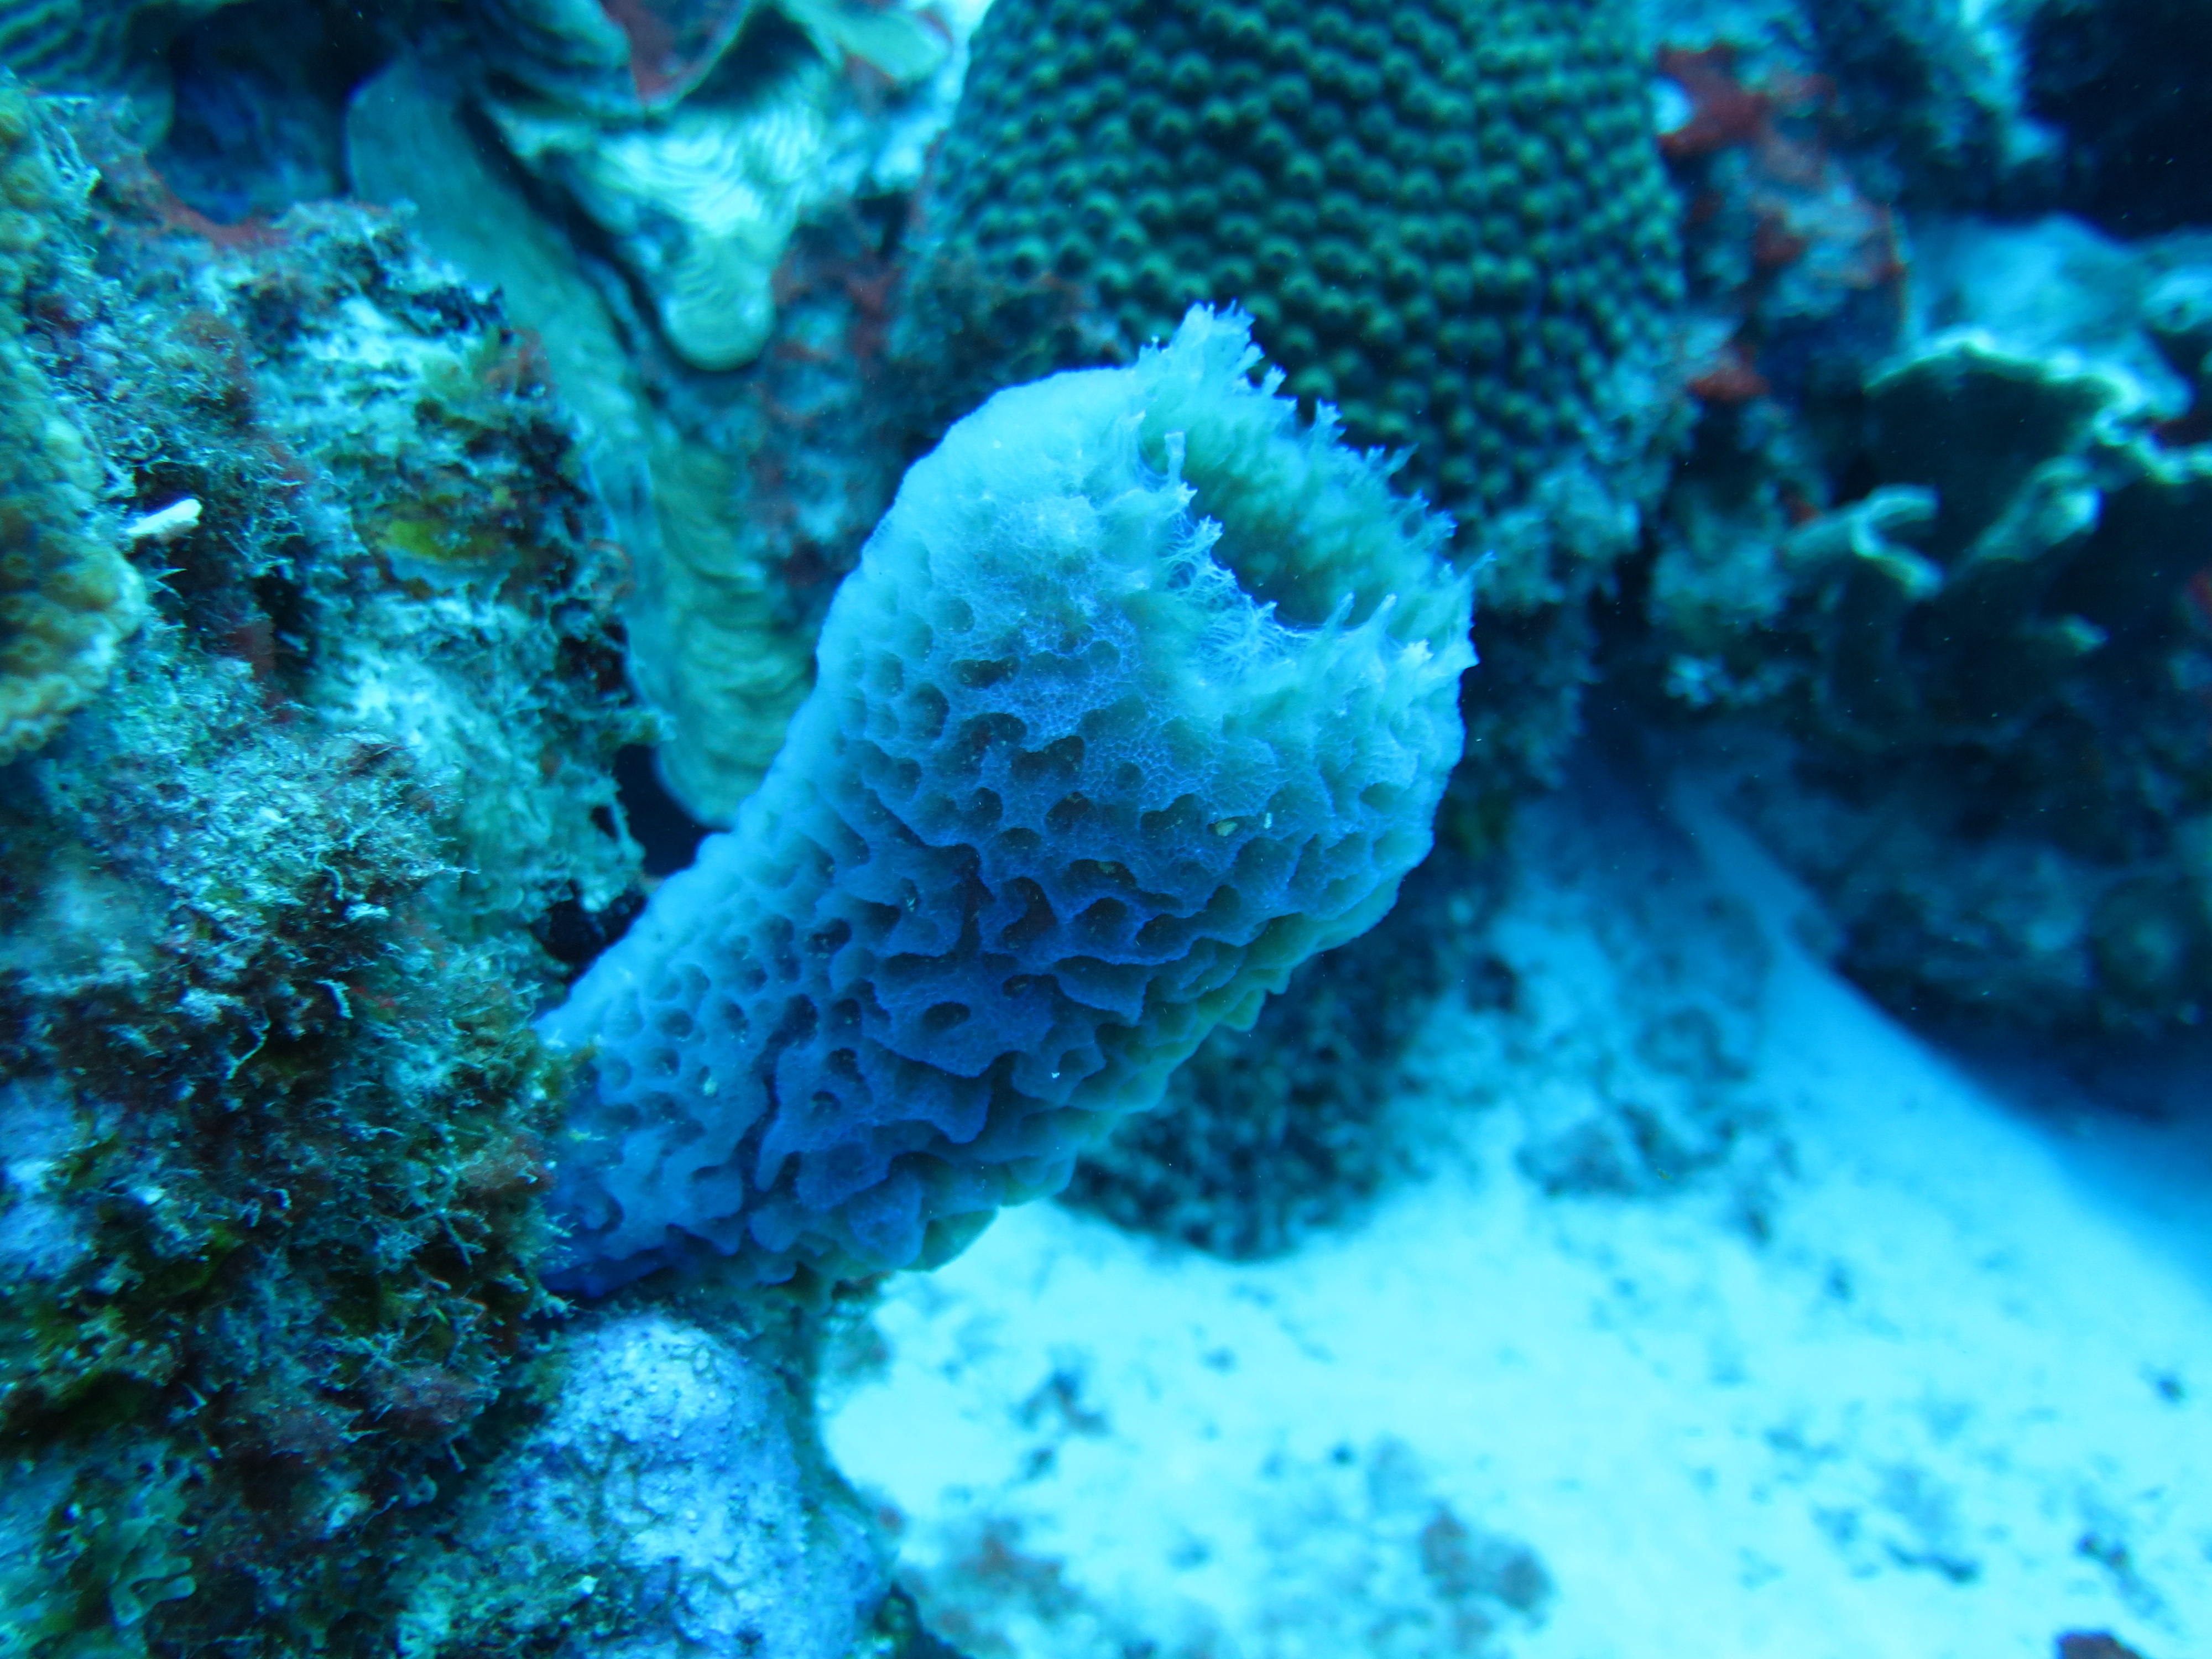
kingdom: Animalia
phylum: Porifera
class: Demospongiae
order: Haplosclerida
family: Callyspongiidae
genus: Callyspongia
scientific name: Callyspongia plicifera
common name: Azure vase sponge
